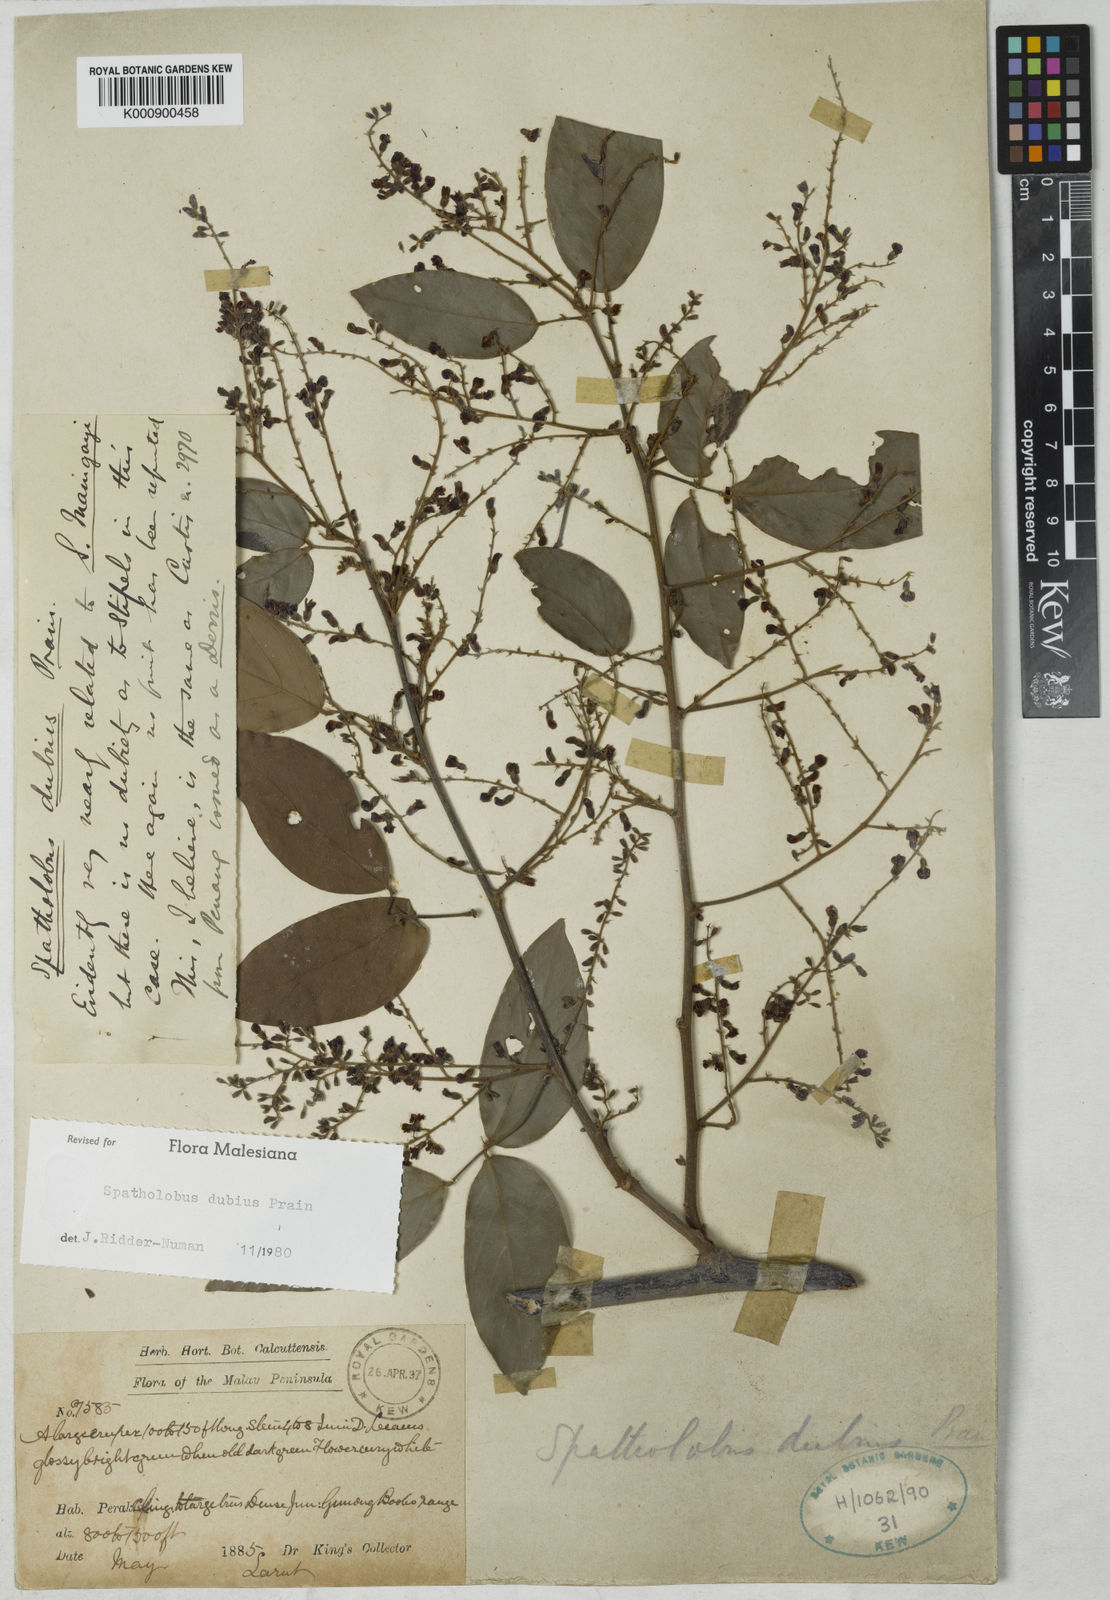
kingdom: Plantae
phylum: Tracheophyta
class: Magnoliopsida
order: Fabales
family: Fabaceae
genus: Spatholobus
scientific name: Spatholobus dubius
